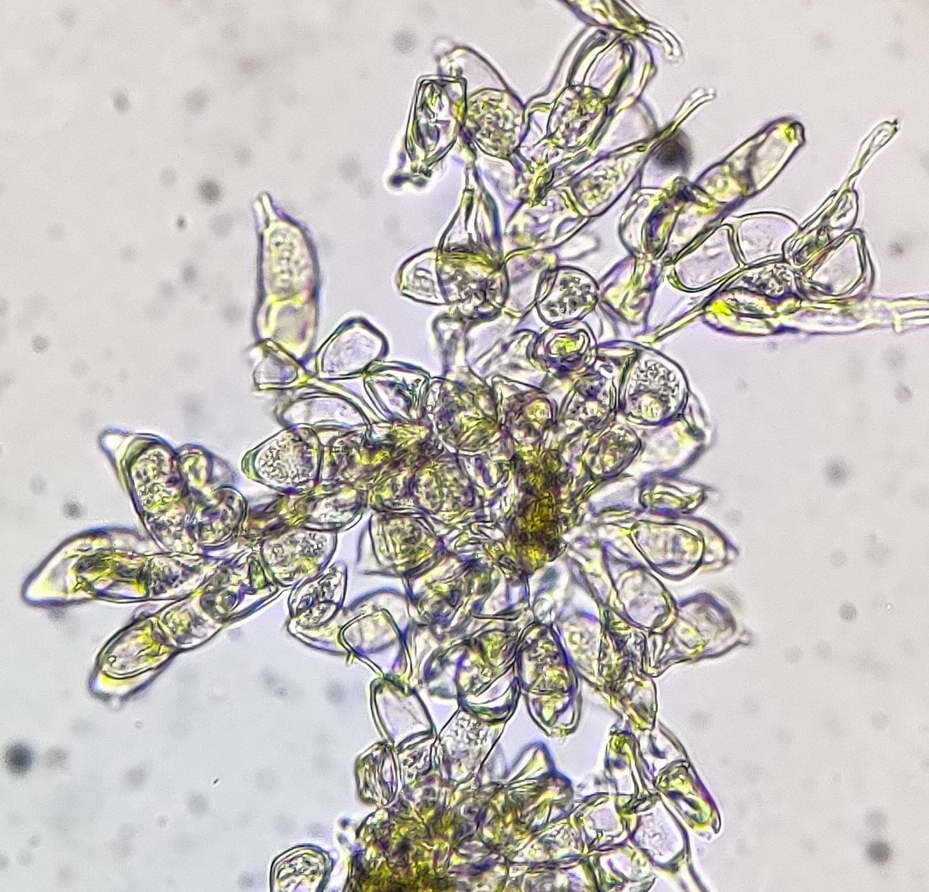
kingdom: Fungi
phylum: Basidiomycota
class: Pucciniomycetes
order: Pucciniales
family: Pucciniaceae
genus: Puccinia
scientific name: Puccinia albulensis
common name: Alpine veronica rust
